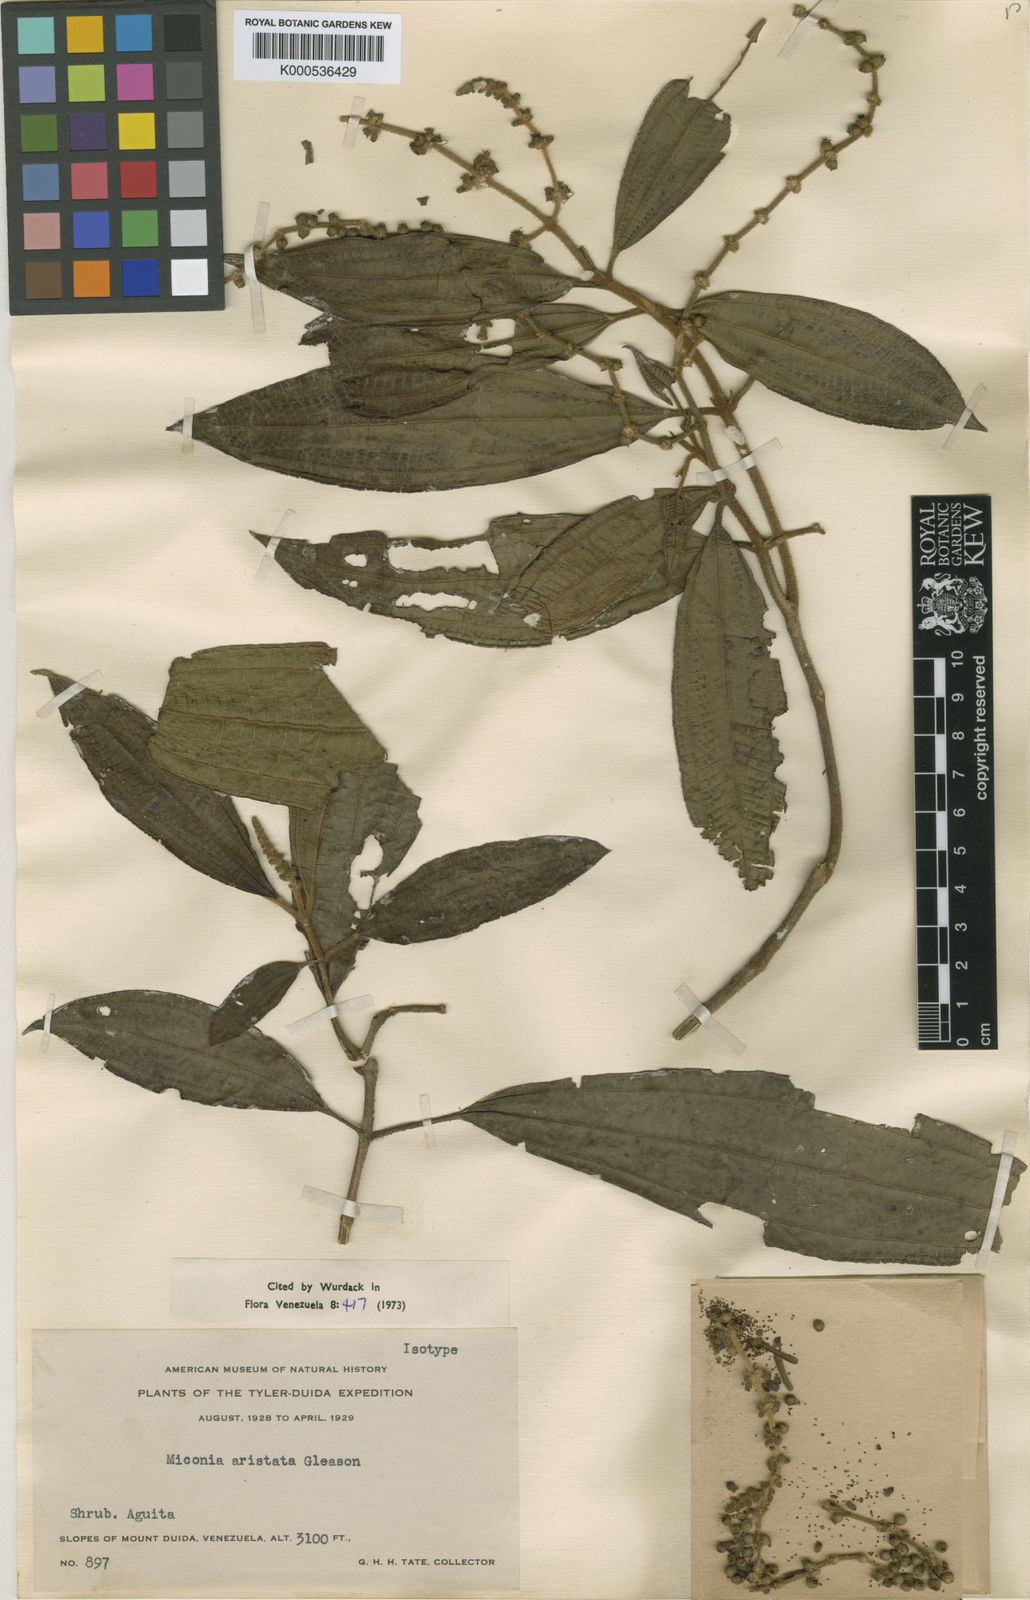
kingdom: Plantae
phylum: Tracheophyta
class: Magnoliopsida
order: Myrtales
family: Melastomataceae
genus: Miconia
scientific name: Miconia aristata
